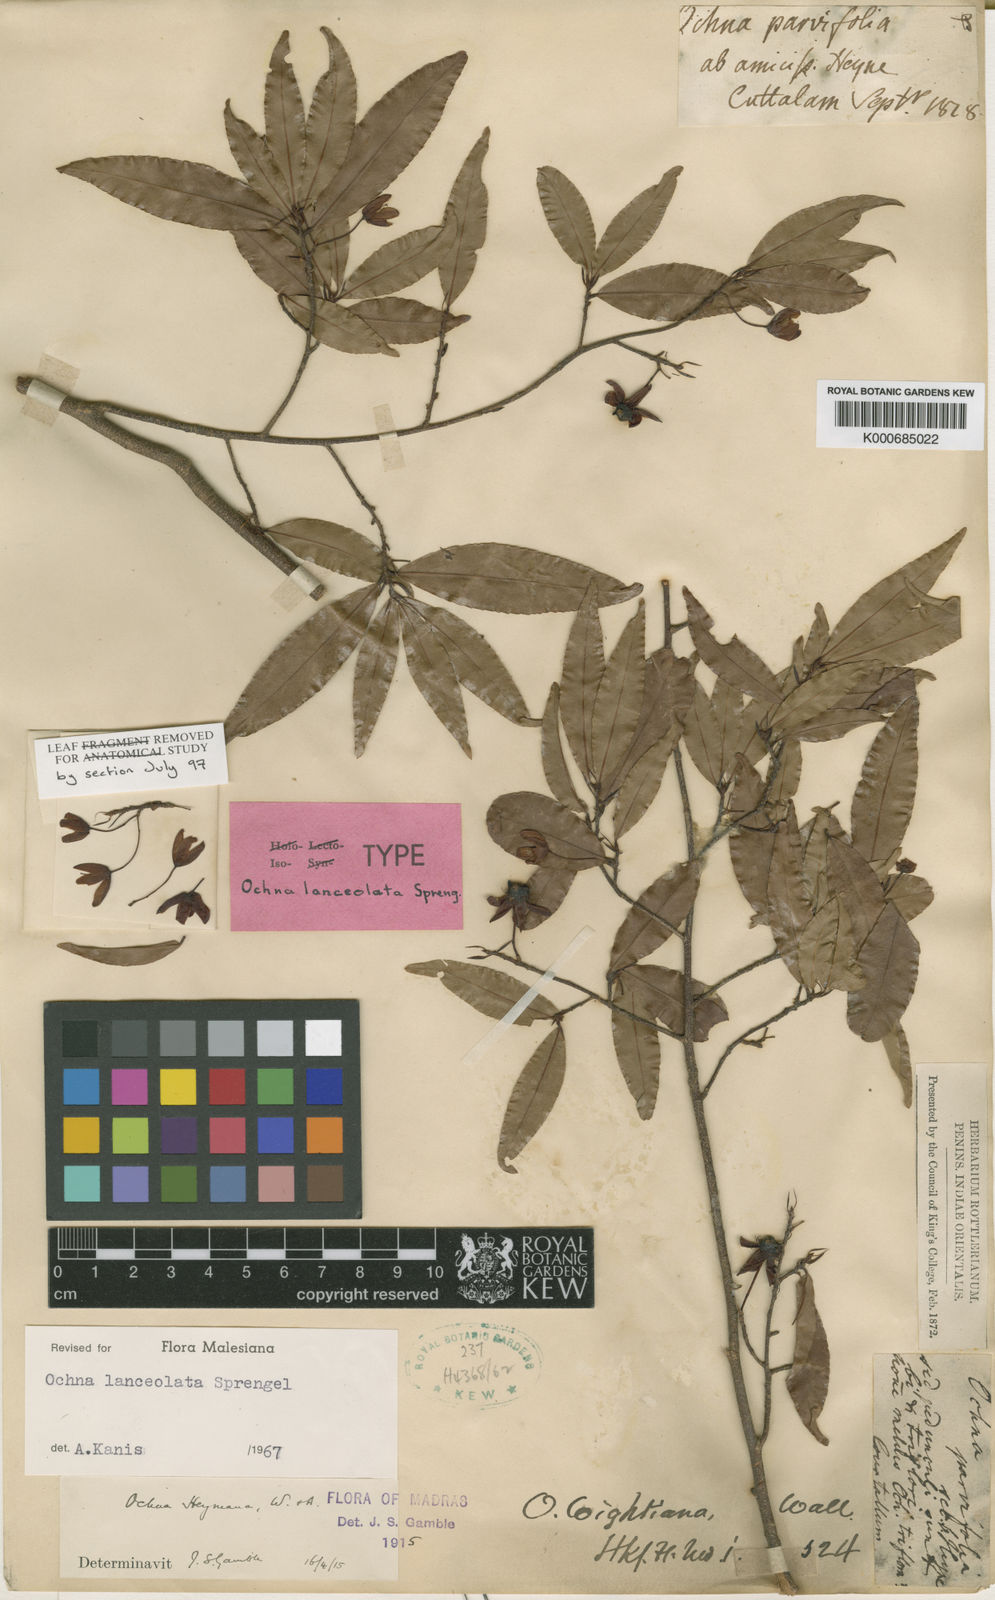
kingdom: Plantae
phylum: Tracheophyta
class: Magnoliopsida
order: Malpighiales
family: Ochnaceae
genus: Ochna
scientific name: Ochna lanceolata
